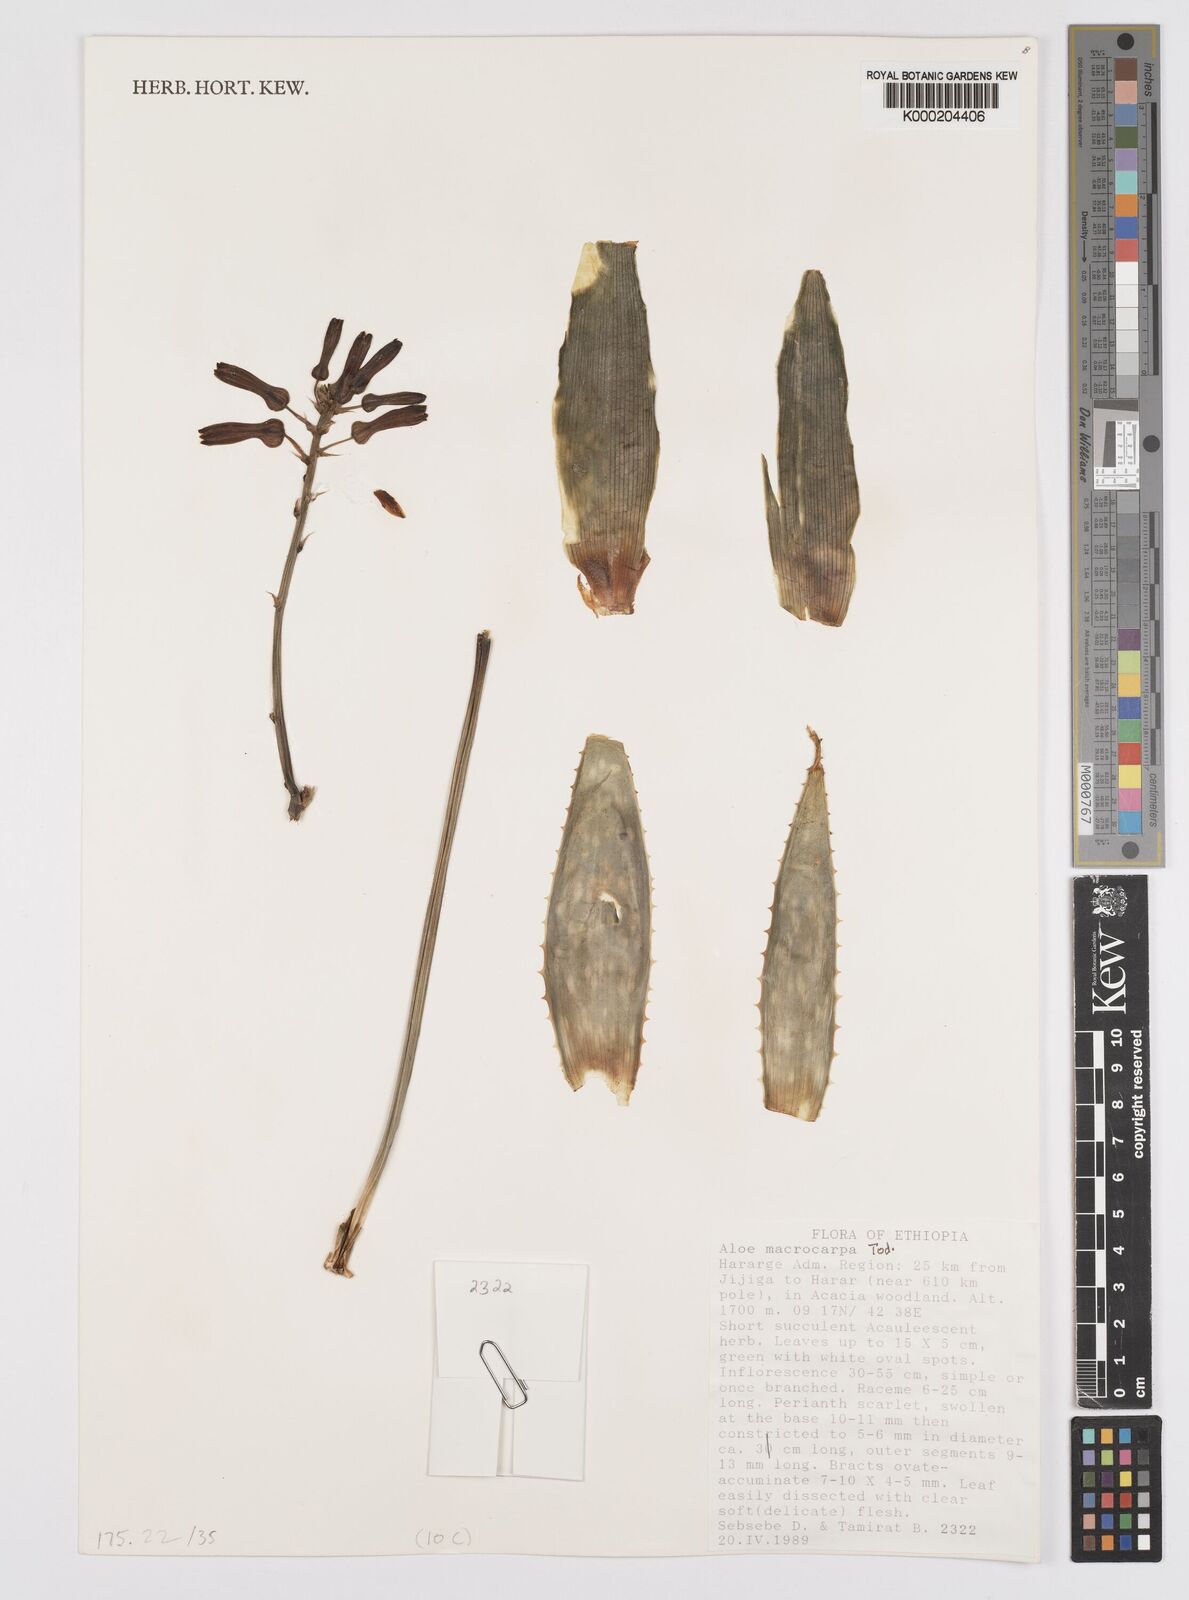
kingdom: Plantae
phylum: Tracheophyta
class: Liliopsida
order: Asparagales
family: Asphodelaceae
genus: Aloe
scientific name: Aloe macrocarpa
